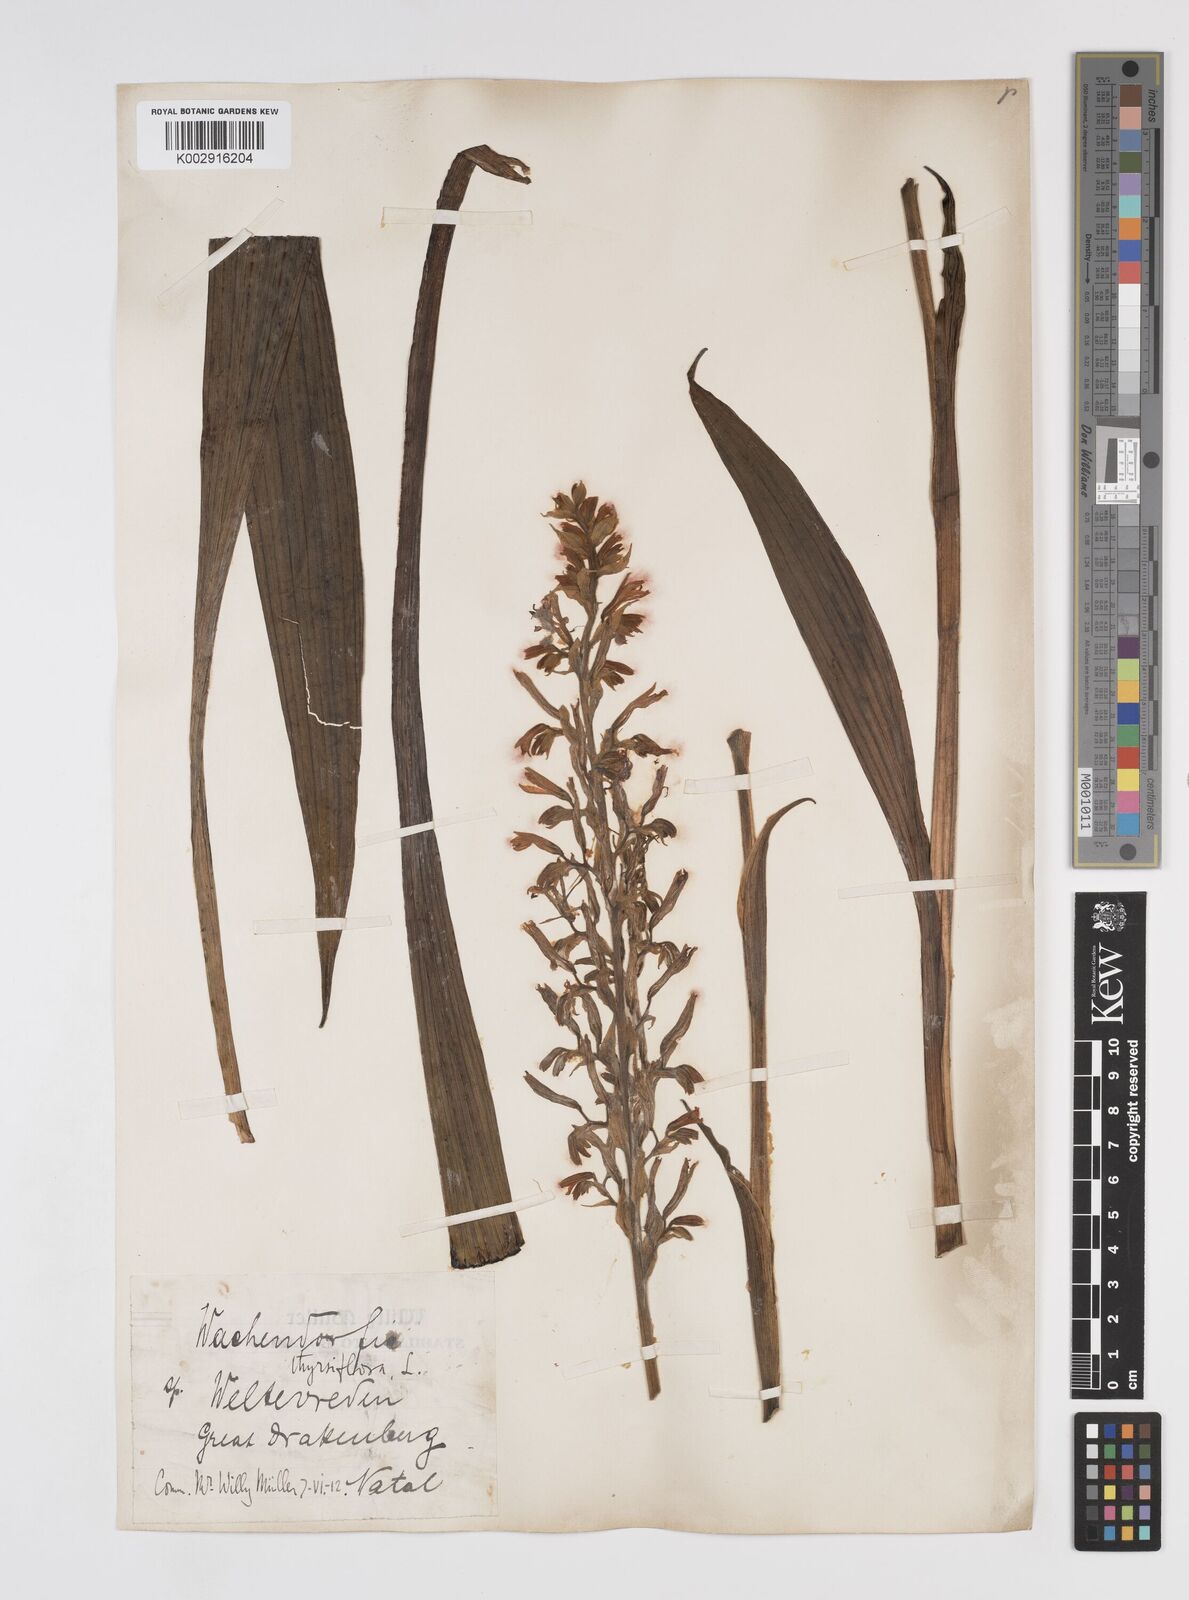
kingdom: Plantae
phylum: Tracheophyta
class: Liliopsida
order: Commelinales
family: Haemodoraceae
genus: Wachendorfia
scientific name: Wachendorfia thyrsiflora
